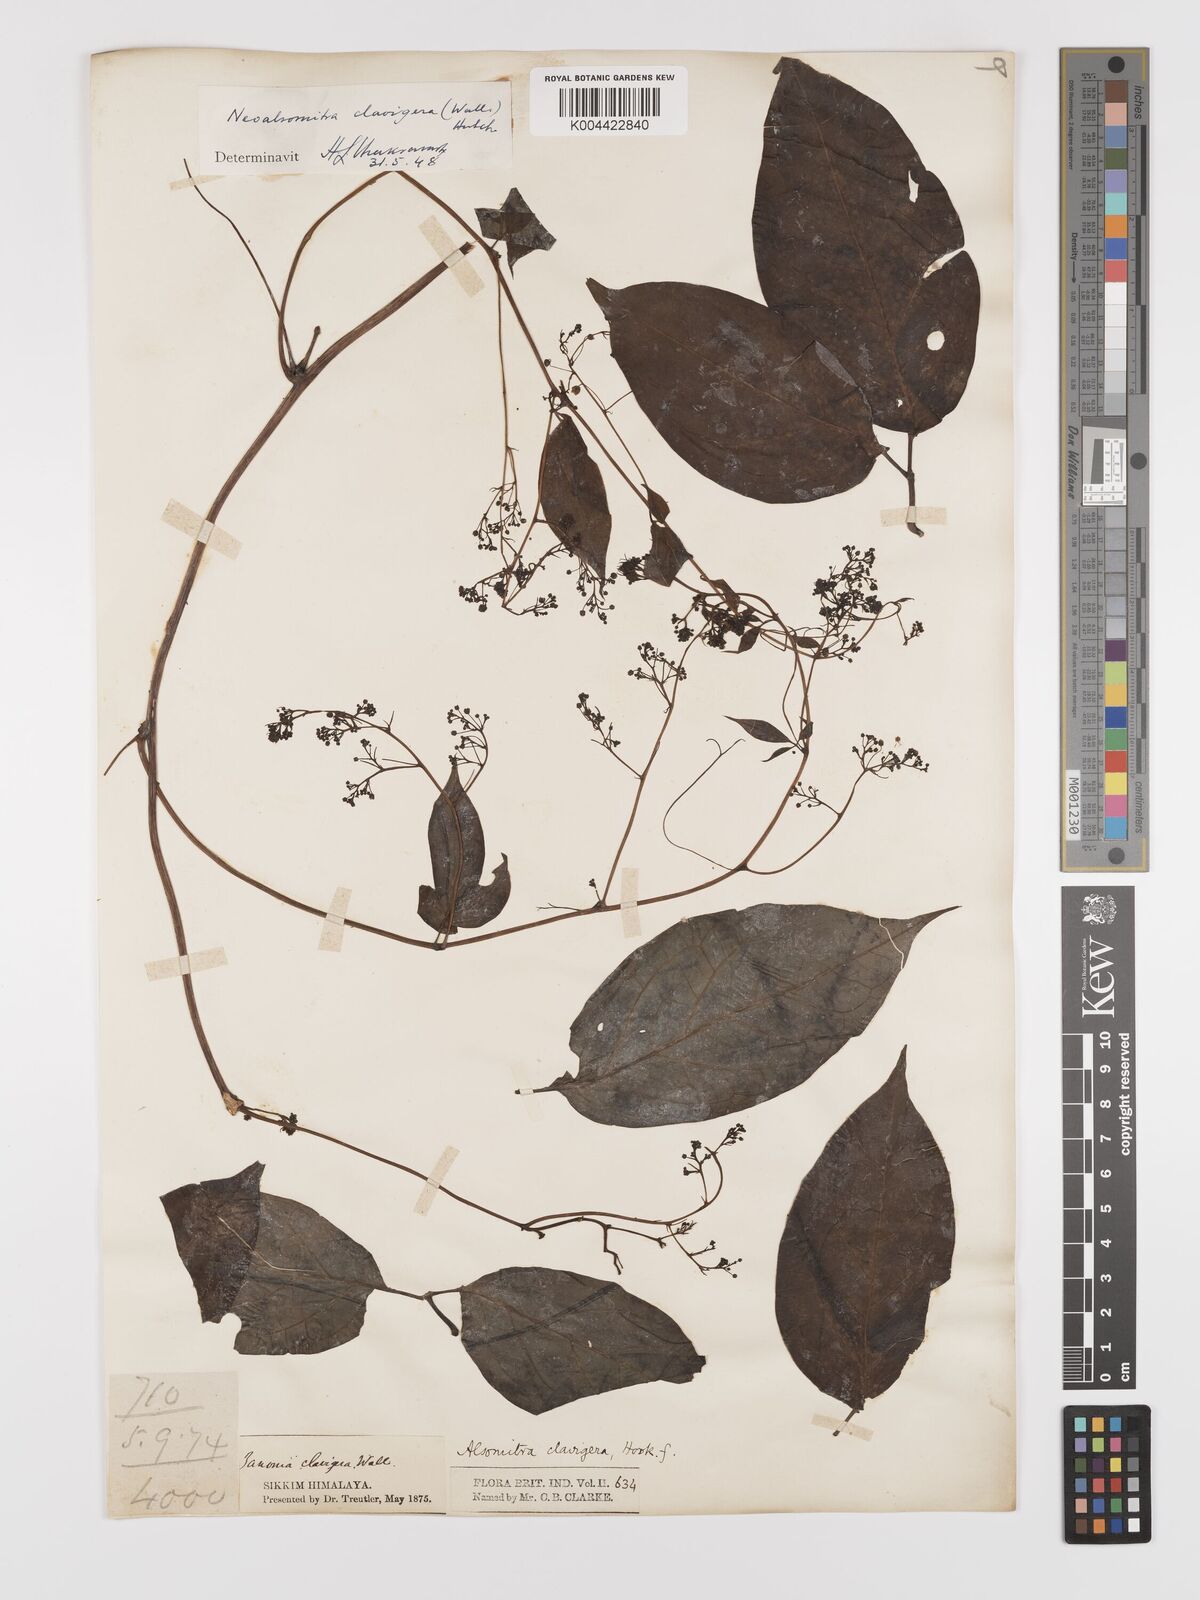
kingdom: Plantae
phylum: Tracheophyta
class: Magnoliopsida
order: Cucurbitales
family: Cucurbitaceae
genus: Neoalsomitra
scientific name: Neoalsomitra
